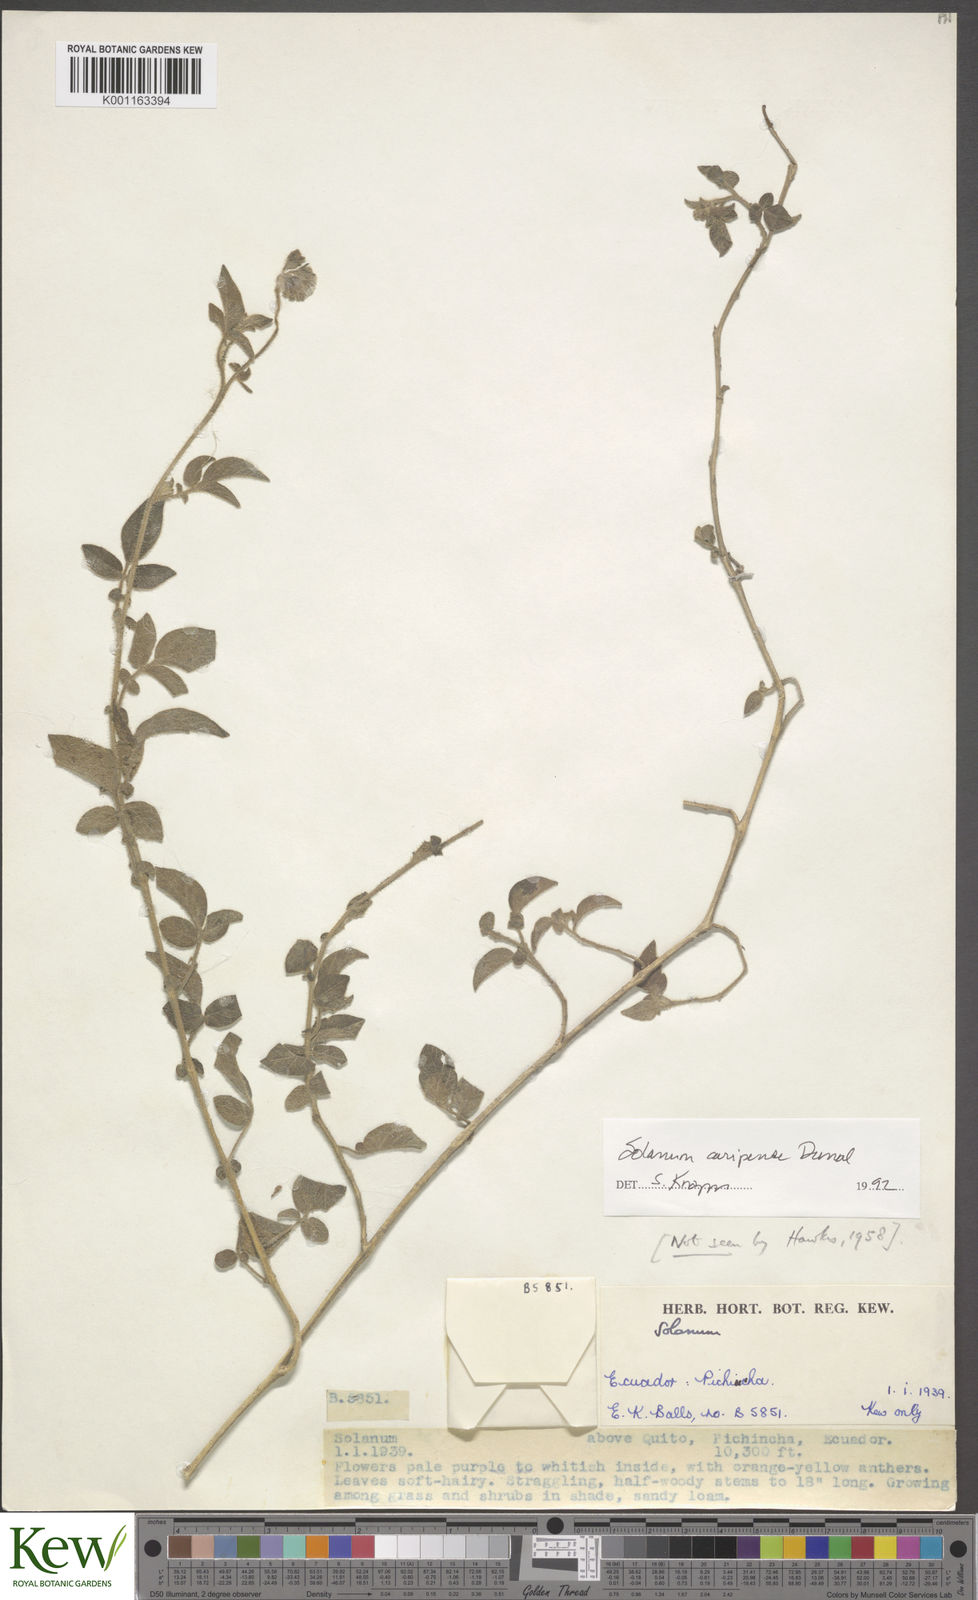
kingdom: Plantae
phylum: Tracheophyta
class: Magnoliopsida
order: Solanales
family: Solanaceae
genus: Solanum
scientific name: Solanum caripense
